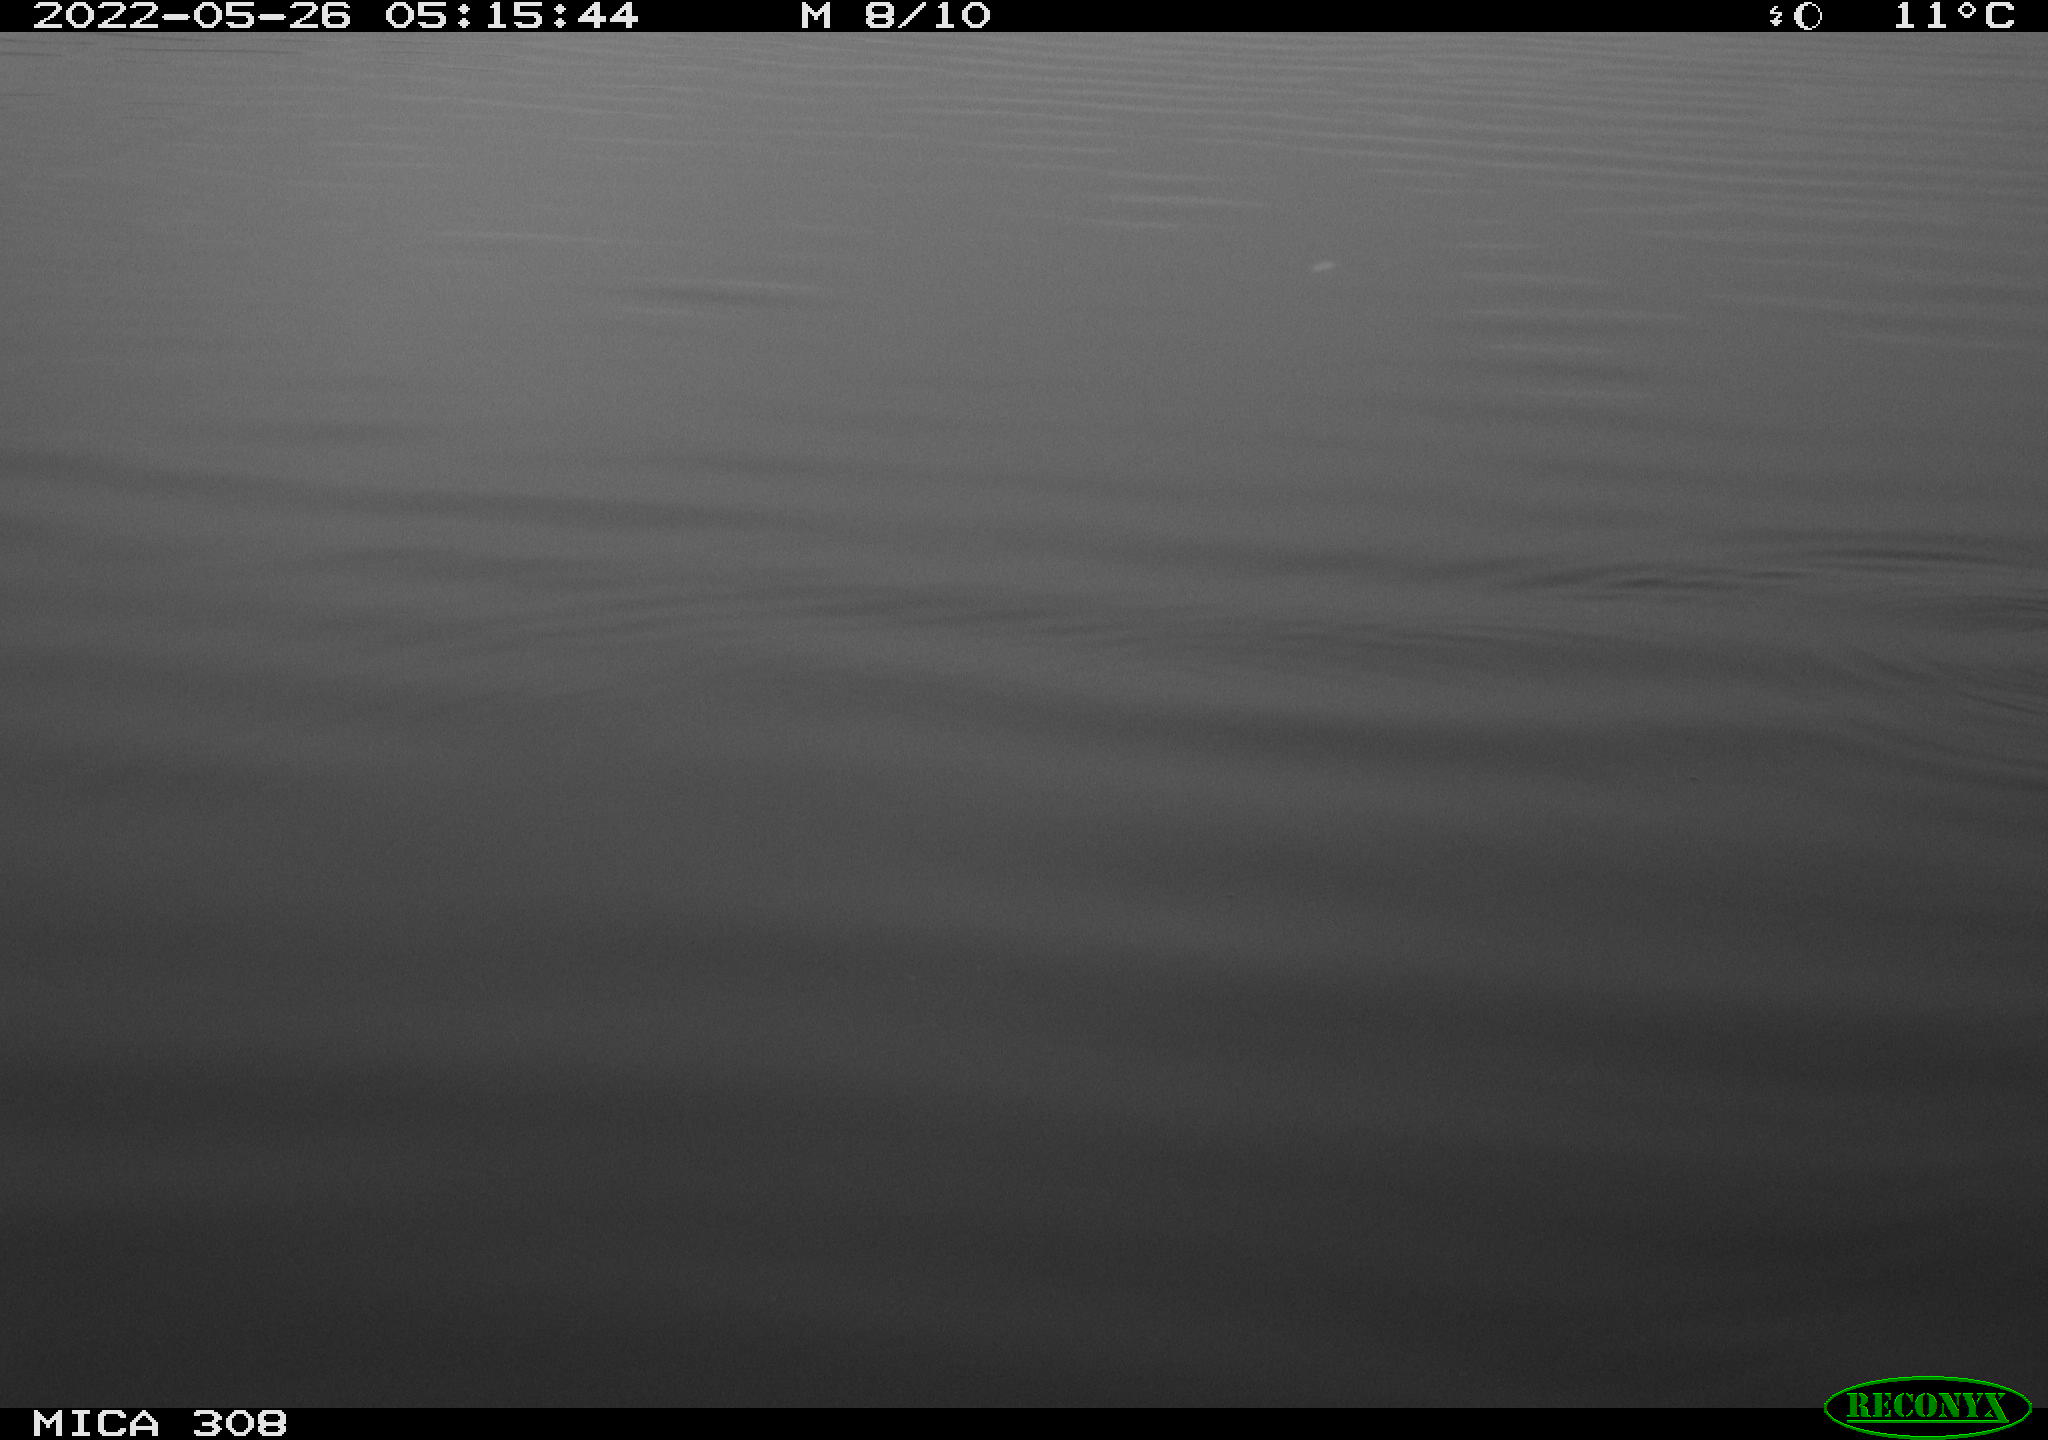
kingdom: Animalia
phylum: Chordata
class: Aves
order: Gruiformes
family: Rallidae
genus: Gallinula
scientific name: Gallinula chloropus
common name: Common moorhen
